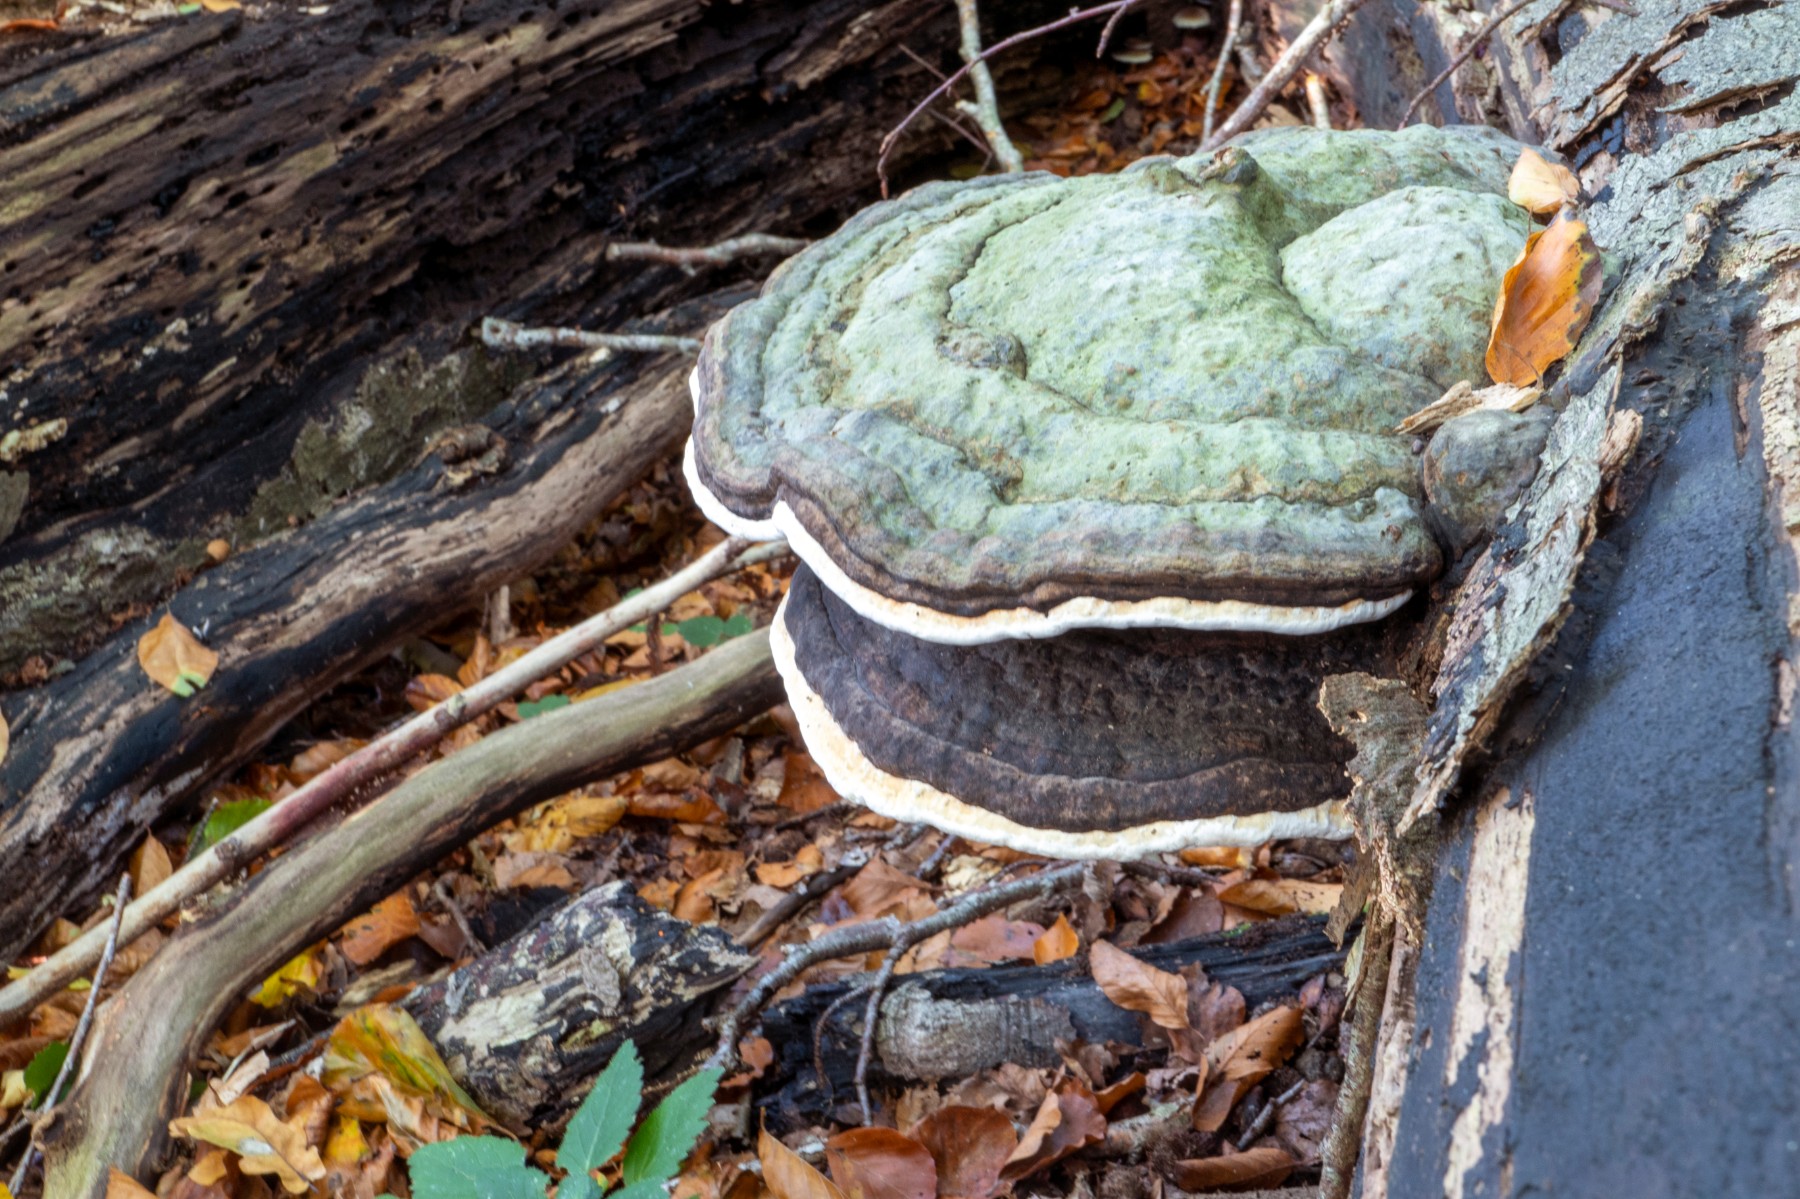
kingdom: Fungi
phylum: Basidiomycota
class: Agaricomycetes
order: Polyporales
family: Fomitopsidaceae
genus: Fomitopsis
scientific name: Fomitopsis pinicola
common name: randbæltet hovporesvamp
